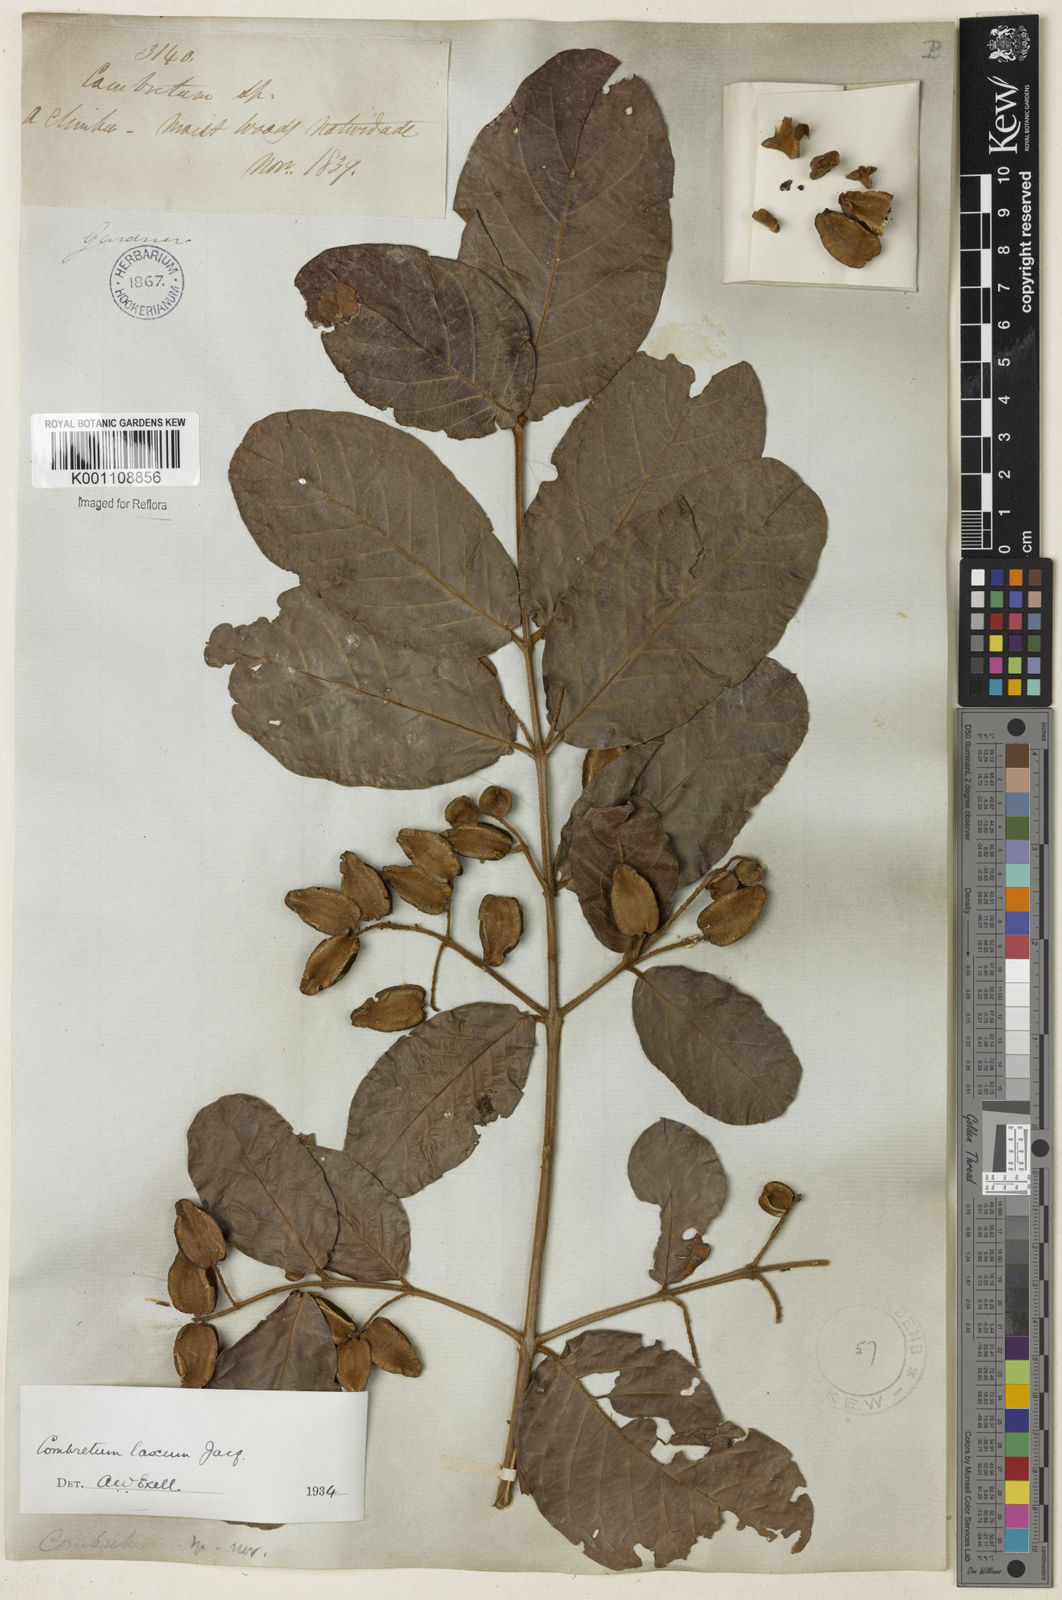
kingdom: Plantae
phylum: Tracheophyta
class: Magnoliopsida
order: Myrtales
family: Combretaceae
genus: Combretum
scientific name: Combretum laxum
